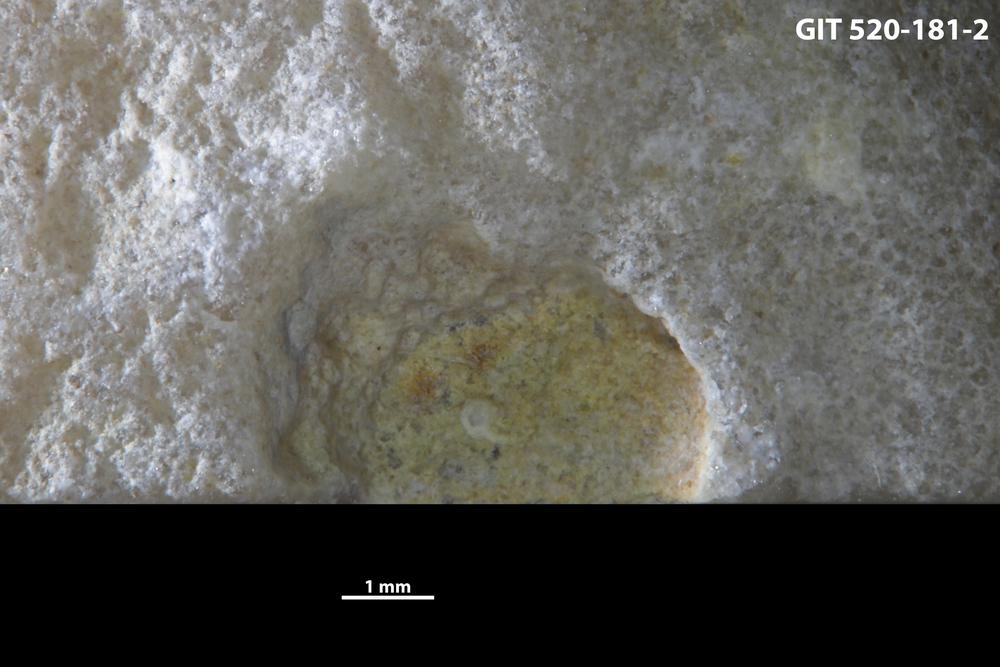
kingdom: Animalia
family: Cornulitidae
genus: Cornulites
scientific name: Cornulites
